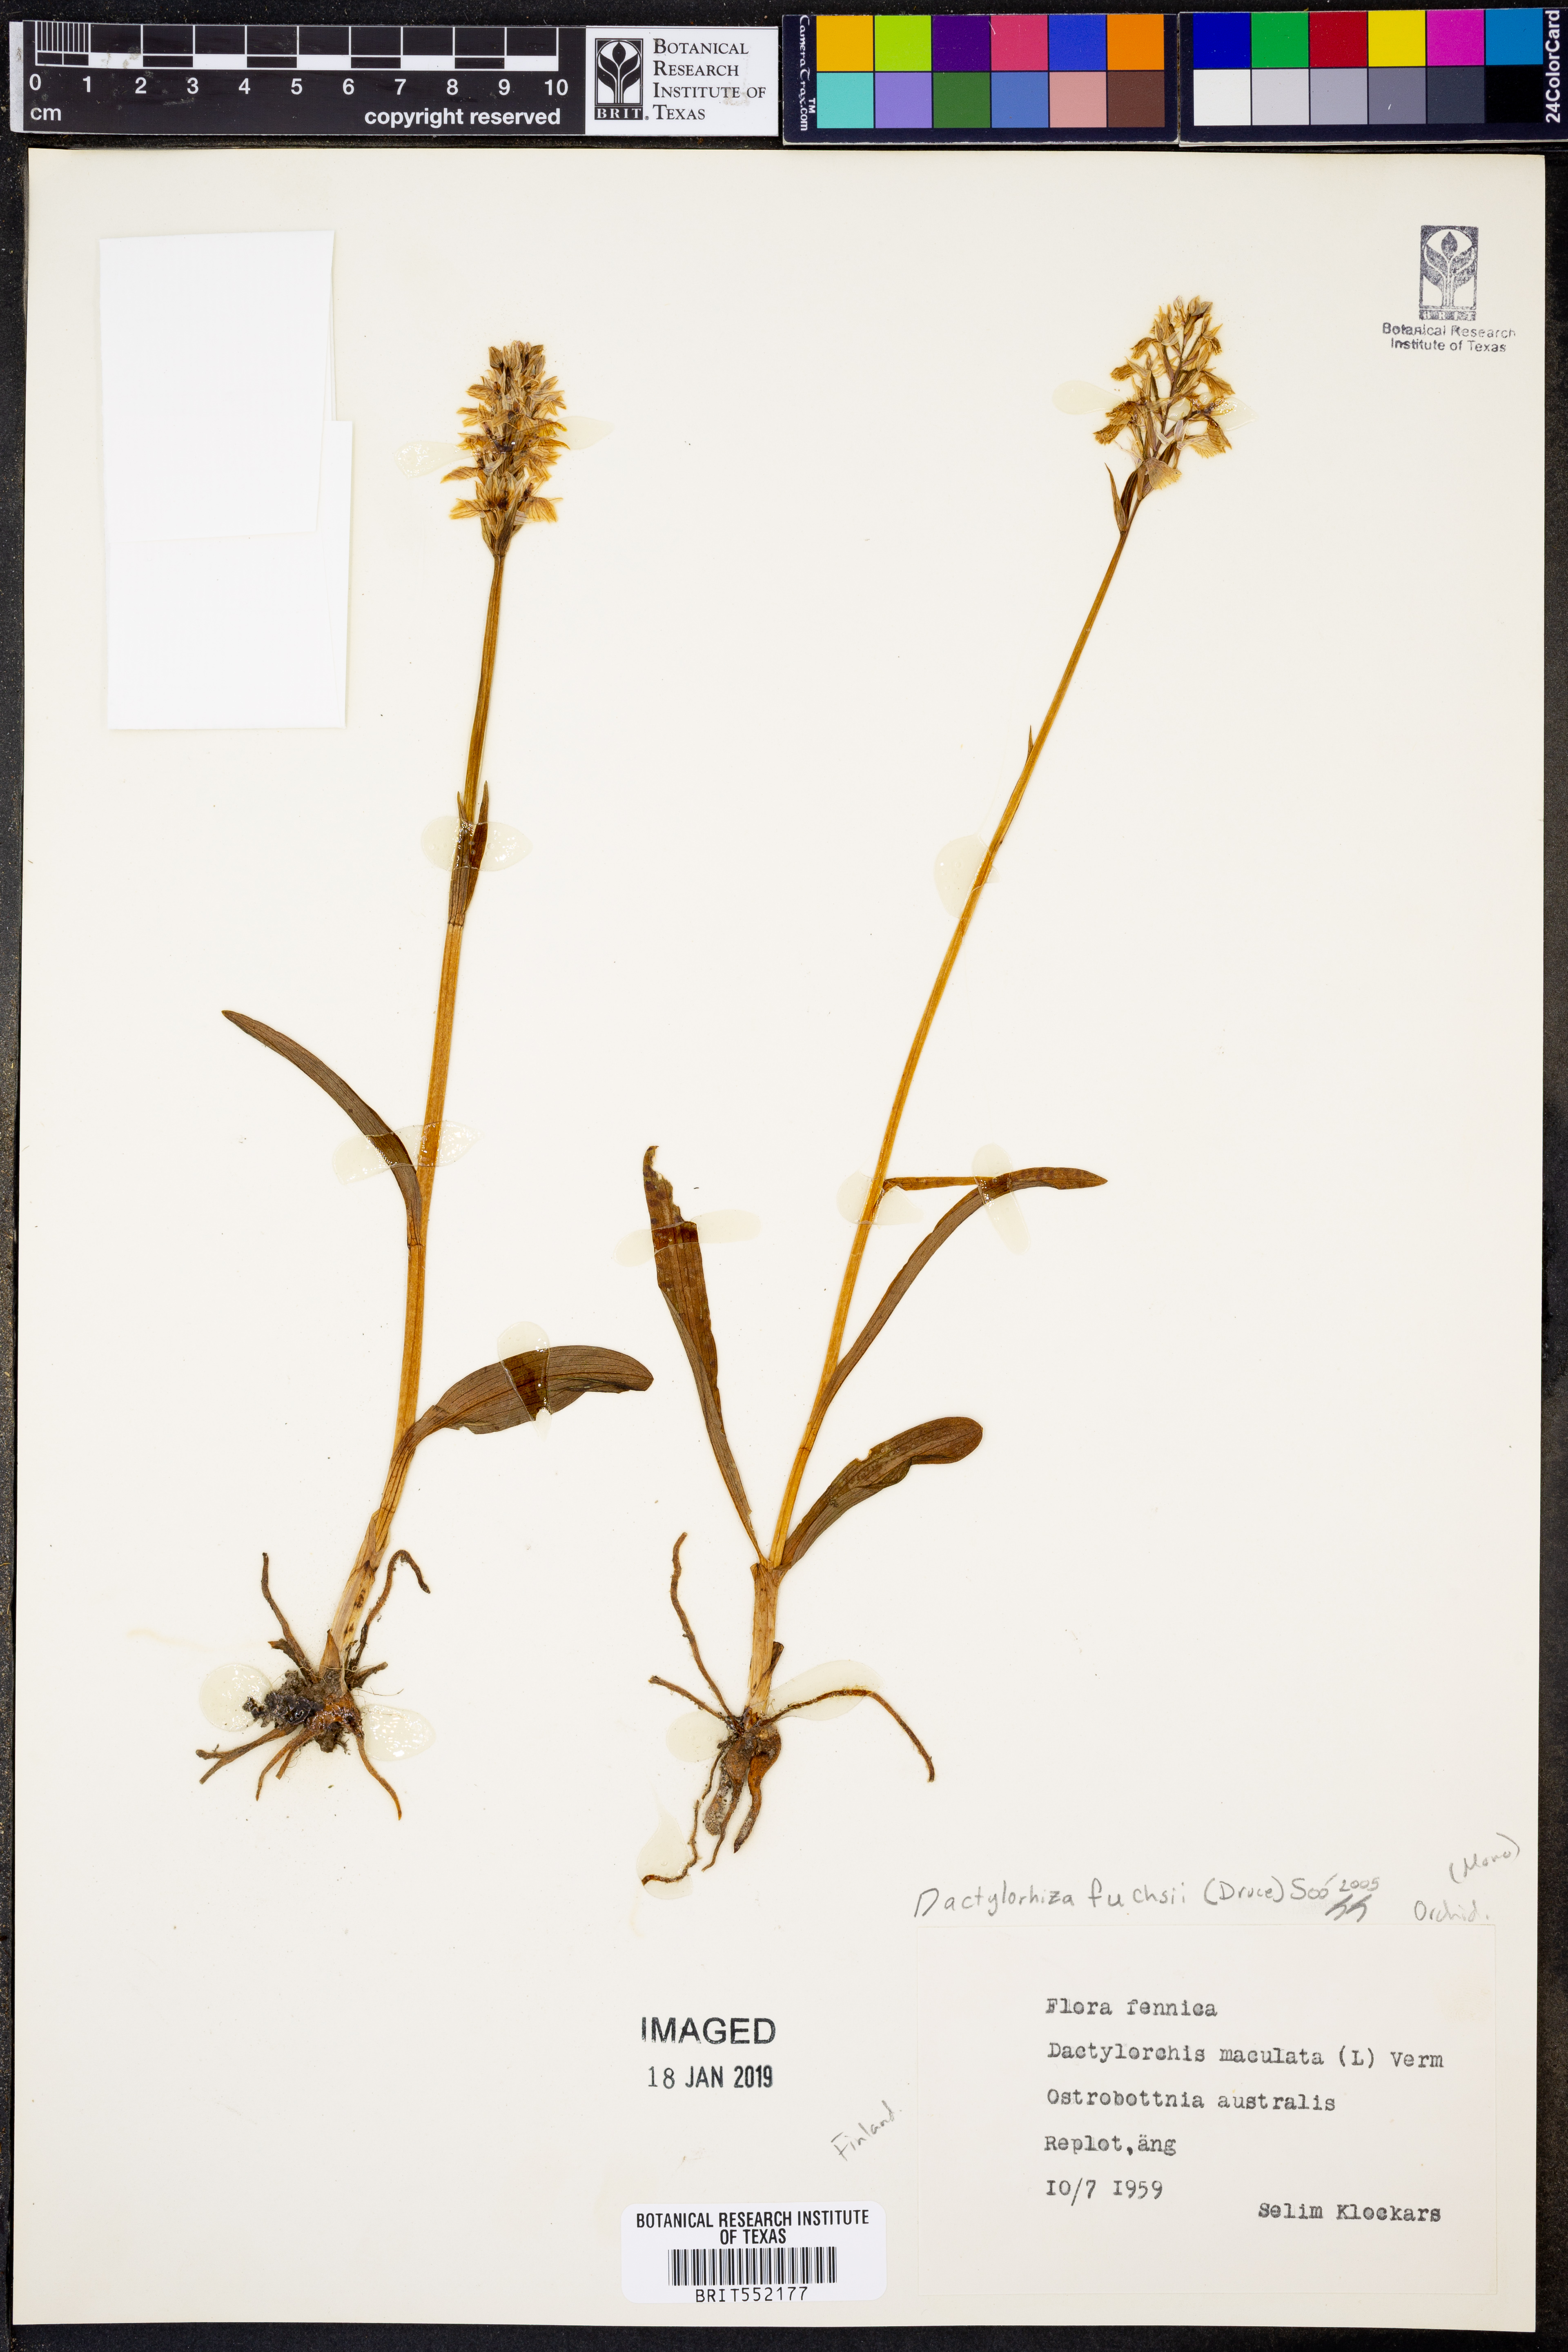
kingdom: Plantae
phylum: Tracheophyta
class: Liliopsida
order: Asparagales
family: Orchidaceae
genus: Dactylorhiza
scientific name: Dactylorhiza maculata
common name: Heath spotted-orchid
